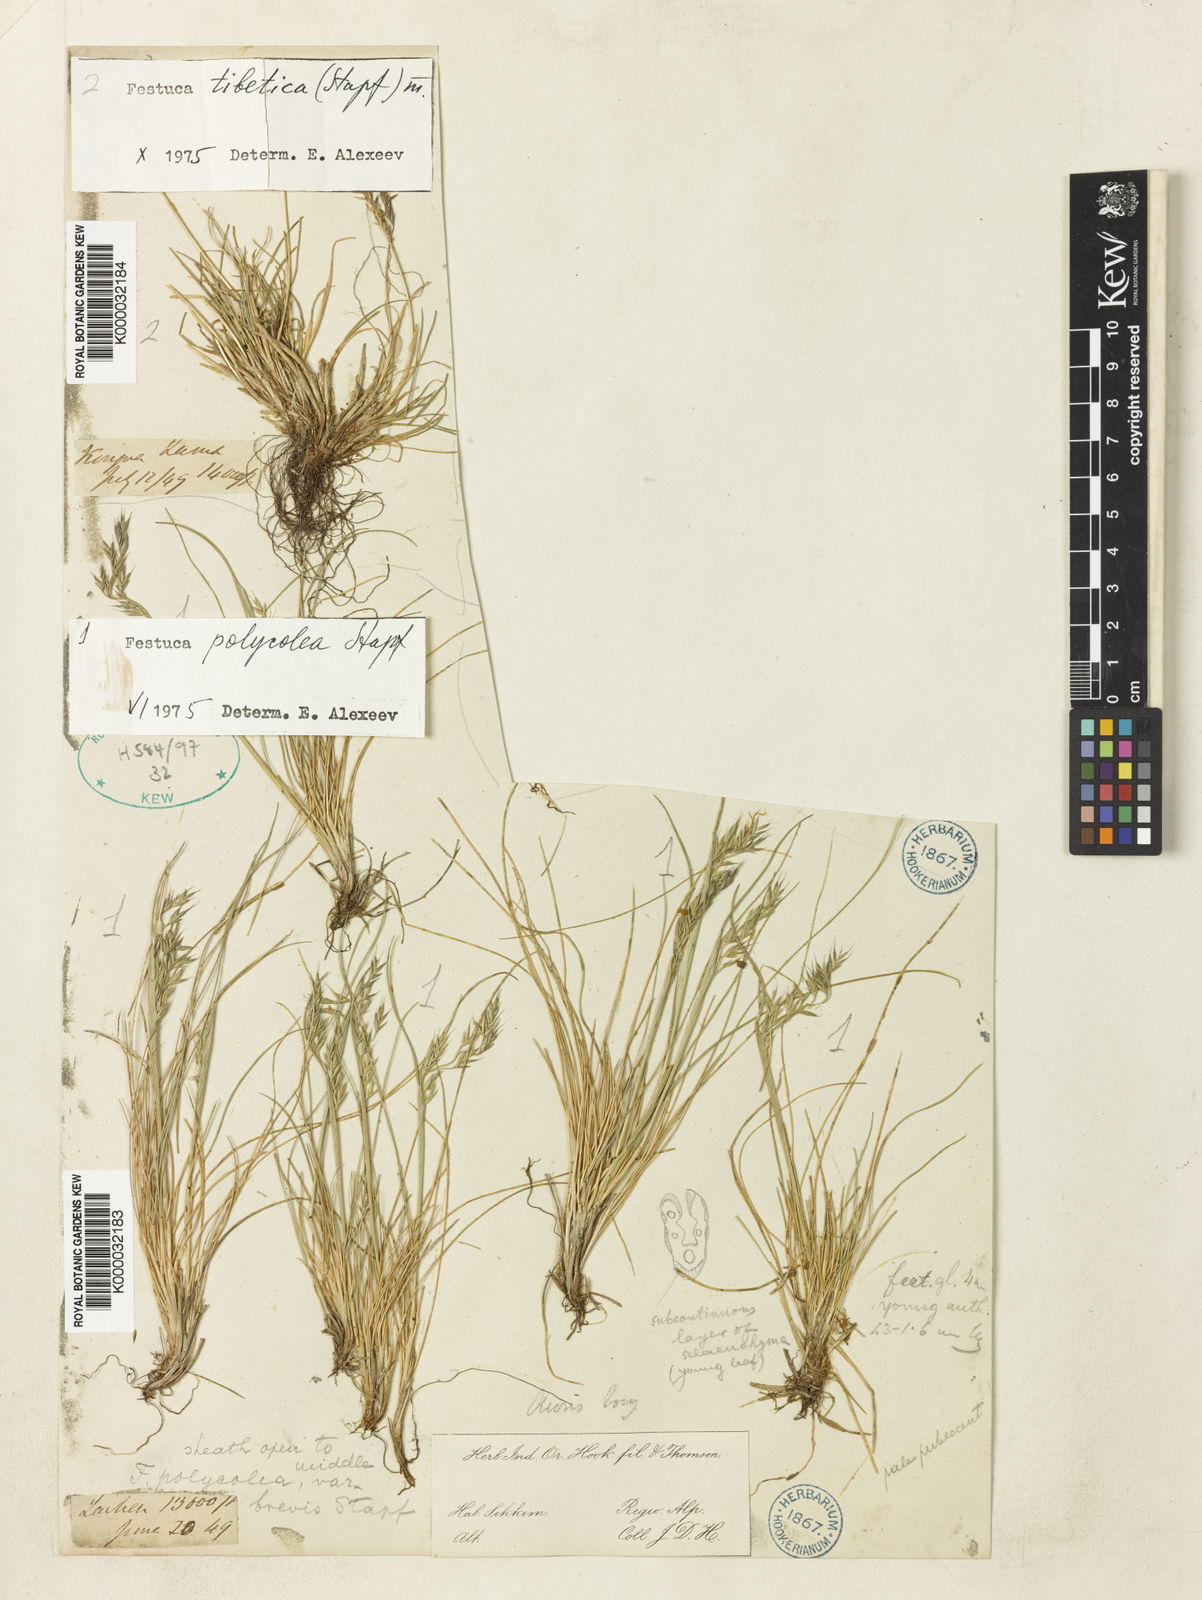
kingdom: Plantae
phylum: Tracheophyta
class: Liliopsida
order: Poales
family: Poaceae
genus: Festuca
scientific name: Festuca polycolea
